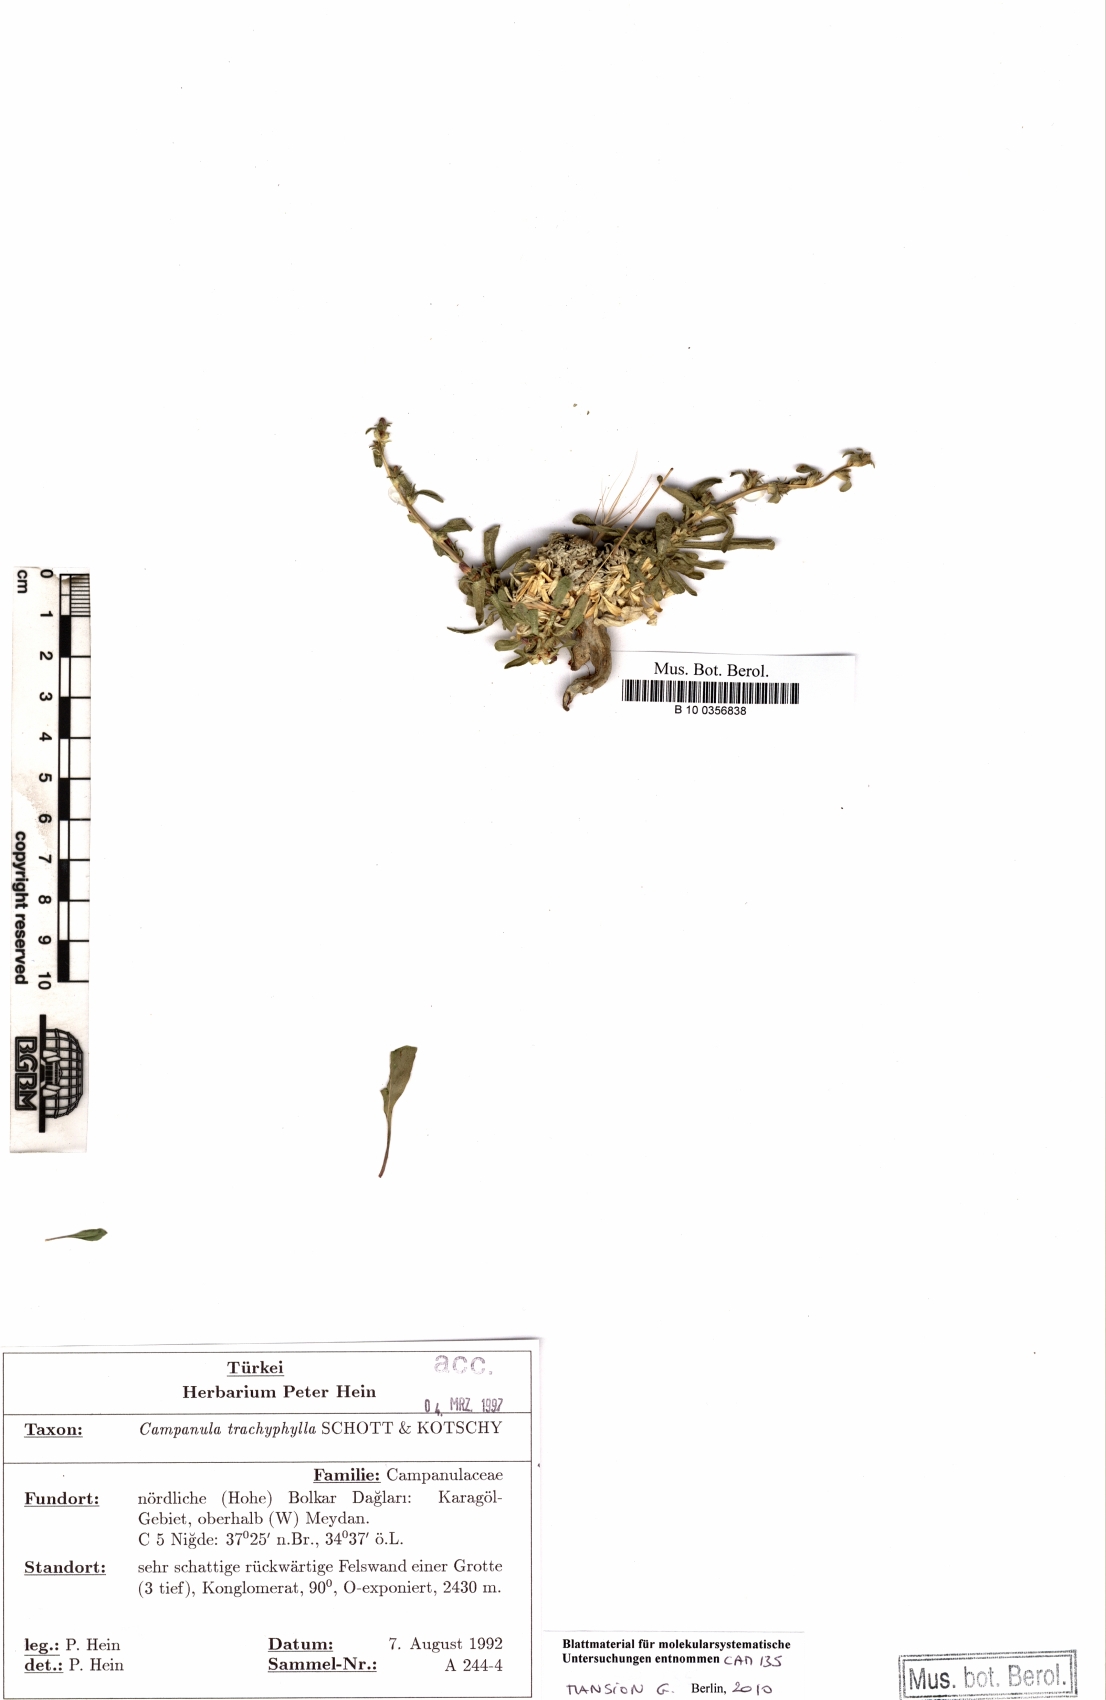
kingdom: Plantae
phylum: Tracheophyta
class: Magnoliopsida
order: Asterales
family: Campanulaceae
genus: Campanula
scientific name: Campanula trachyphylla
